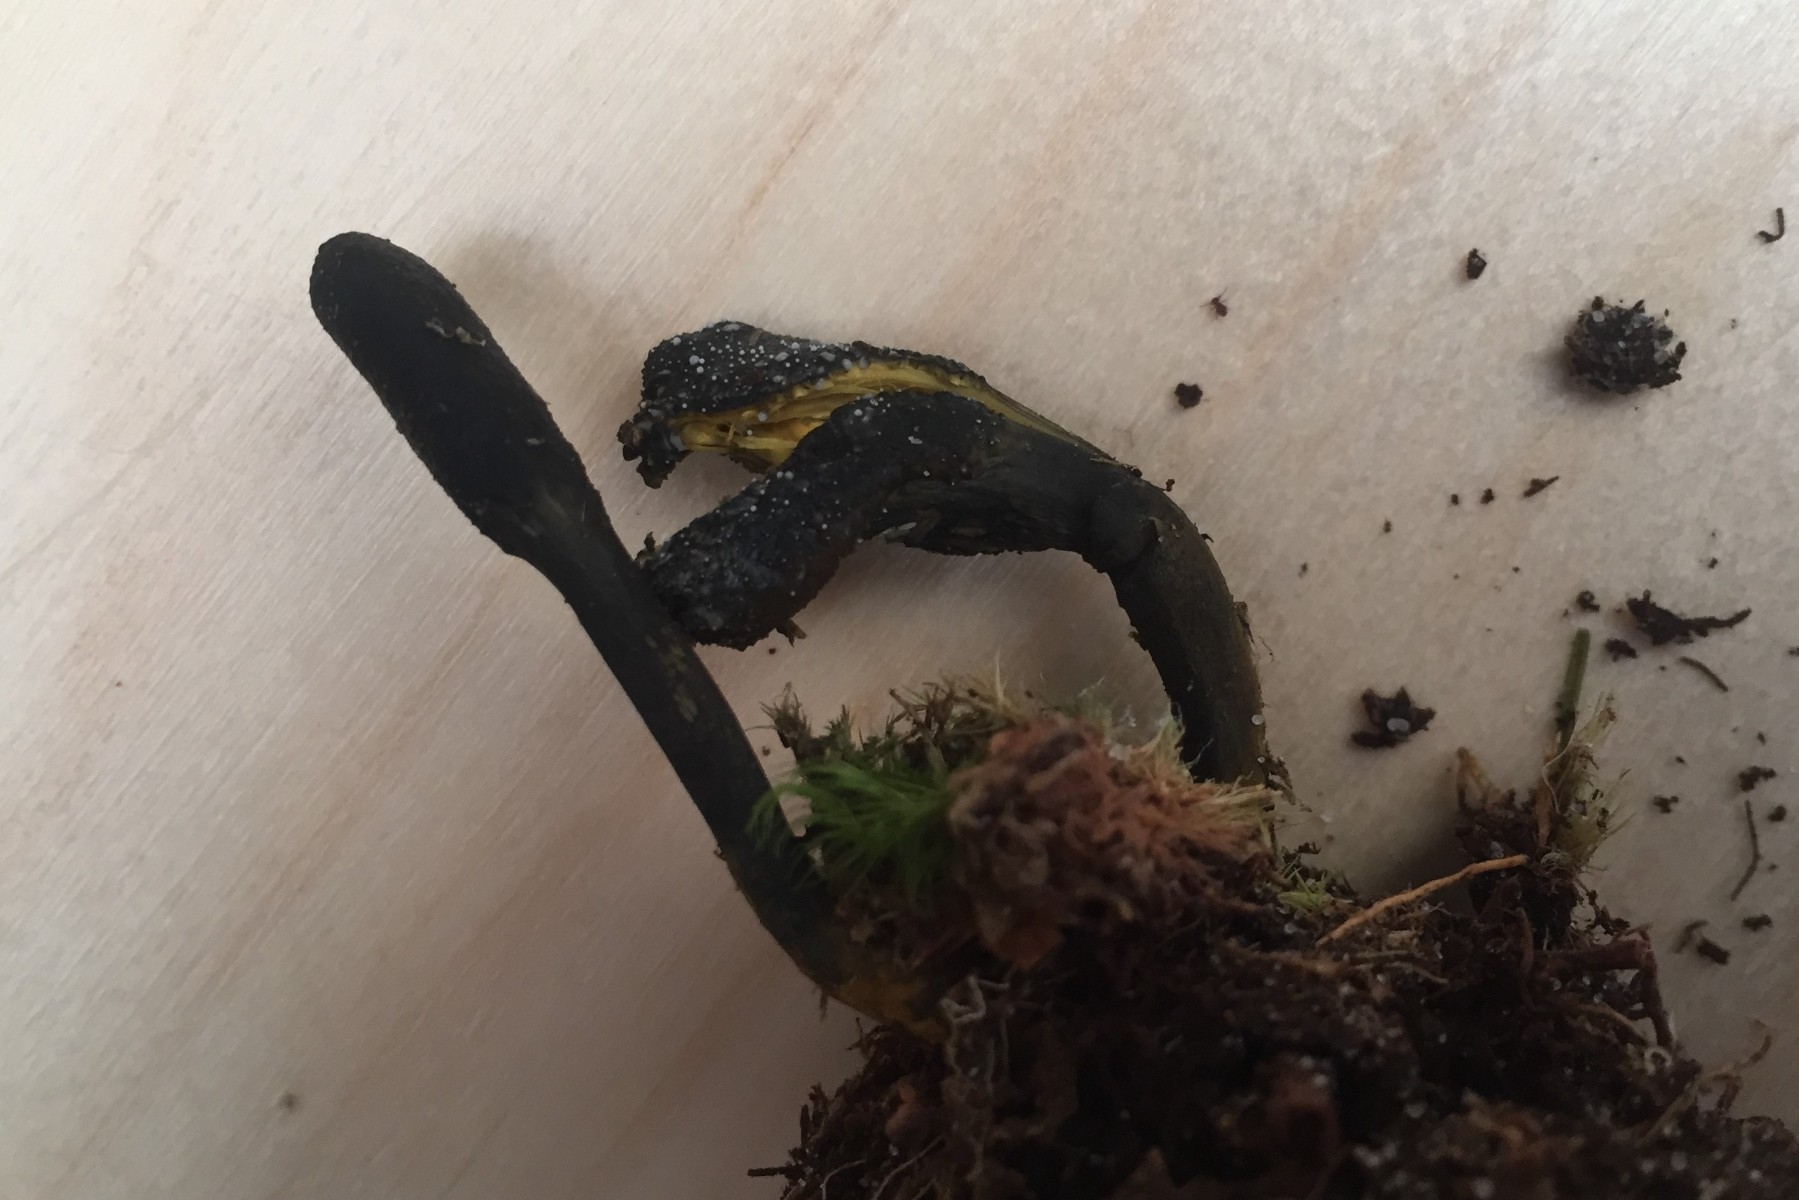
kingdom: Fungi
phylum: Ascomycota
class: Sordariomycetes
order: Hypocreales
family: Ophiocordycipitaceae
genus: Tolypocladium
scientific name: Tolypocladium ophioglossoides
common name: slank snyltekølle
